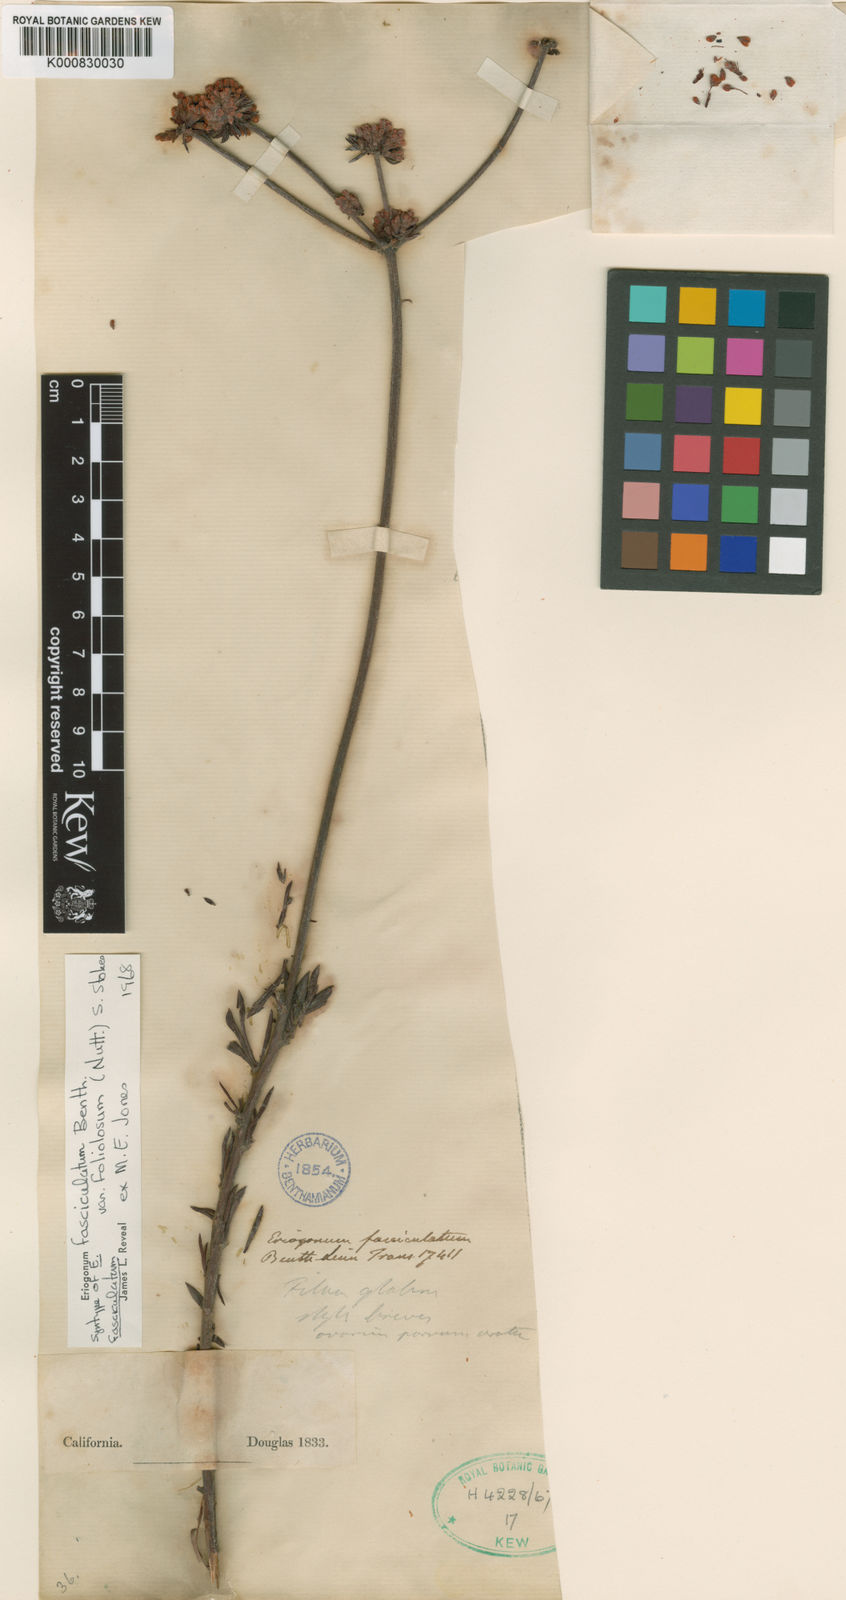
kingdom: Plantae
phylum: Tracheophyta
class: Magnoliopsida
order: Caryophyllales
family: Polygonaceae
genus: Eriogonum
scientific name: Eriogonum fasciculatum
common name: California wild buckwheat
